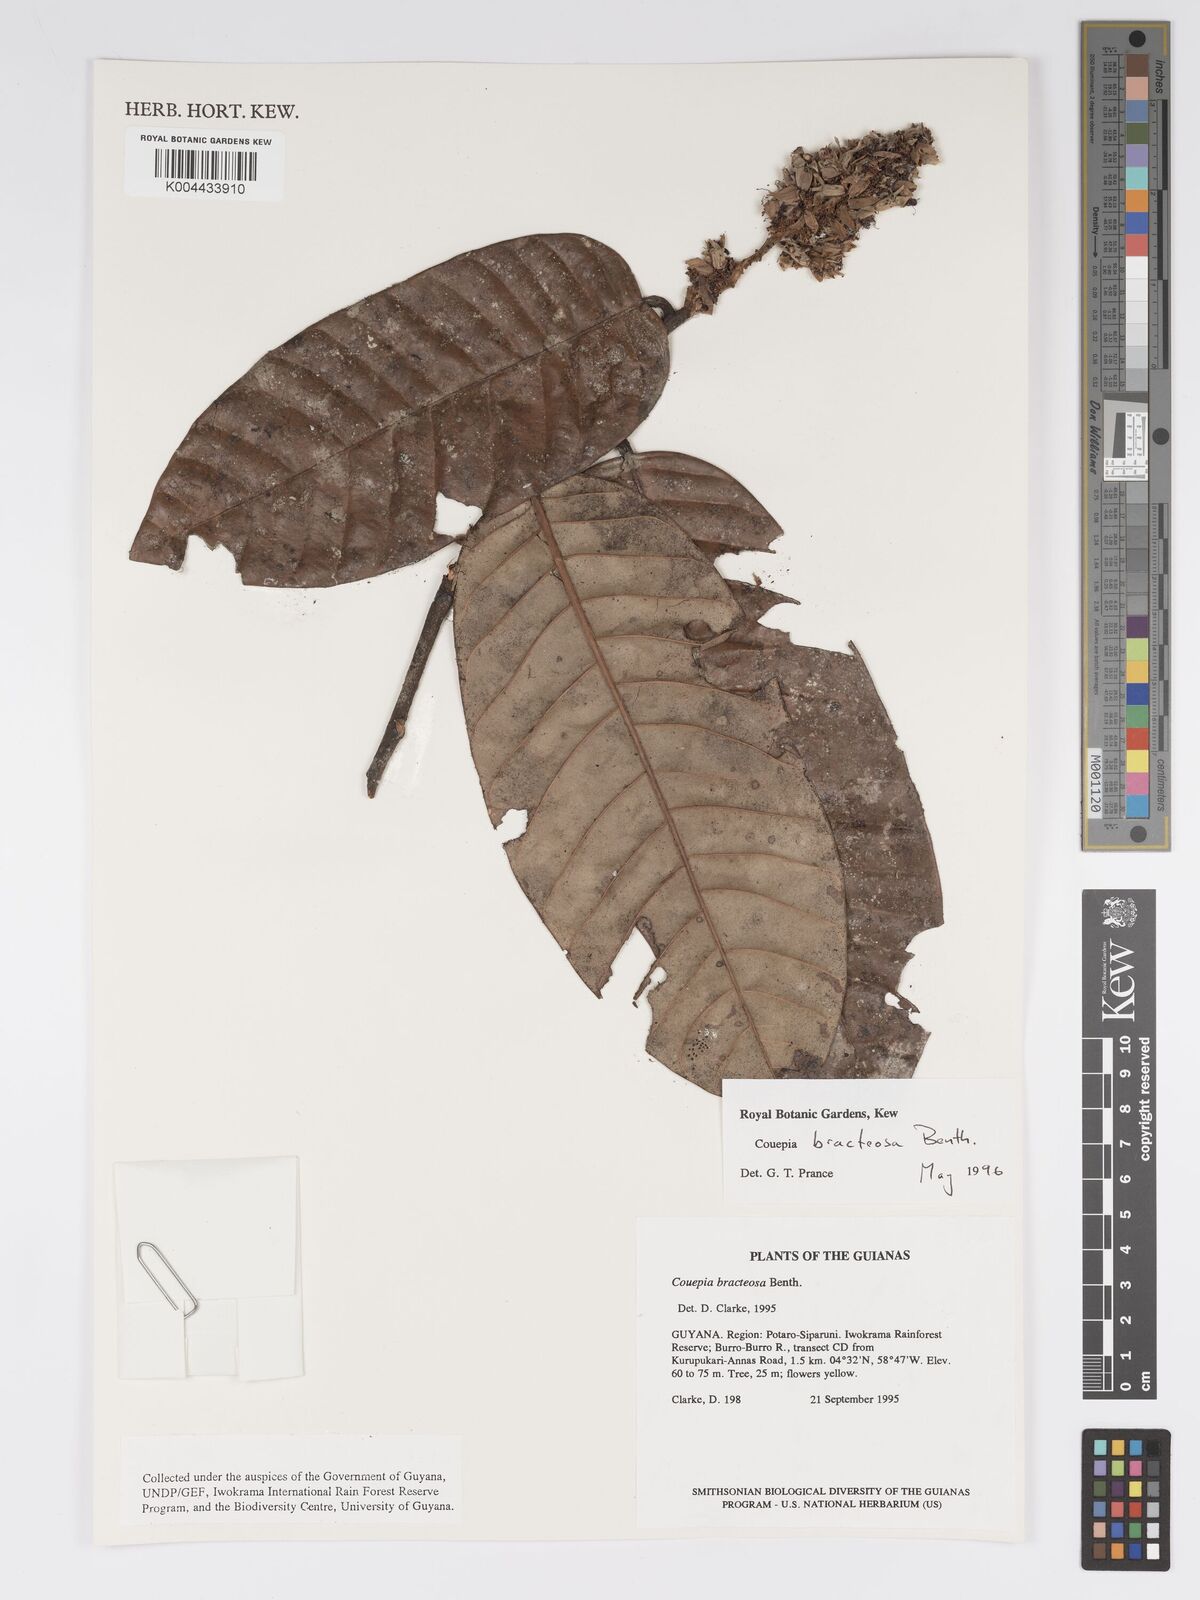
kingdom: Plantae
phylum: Tracheophyta
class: Magnoliopsida
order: Malpighiales
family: Chrysobalanaceae
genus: Couepia
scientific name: Couepia bracteosa
